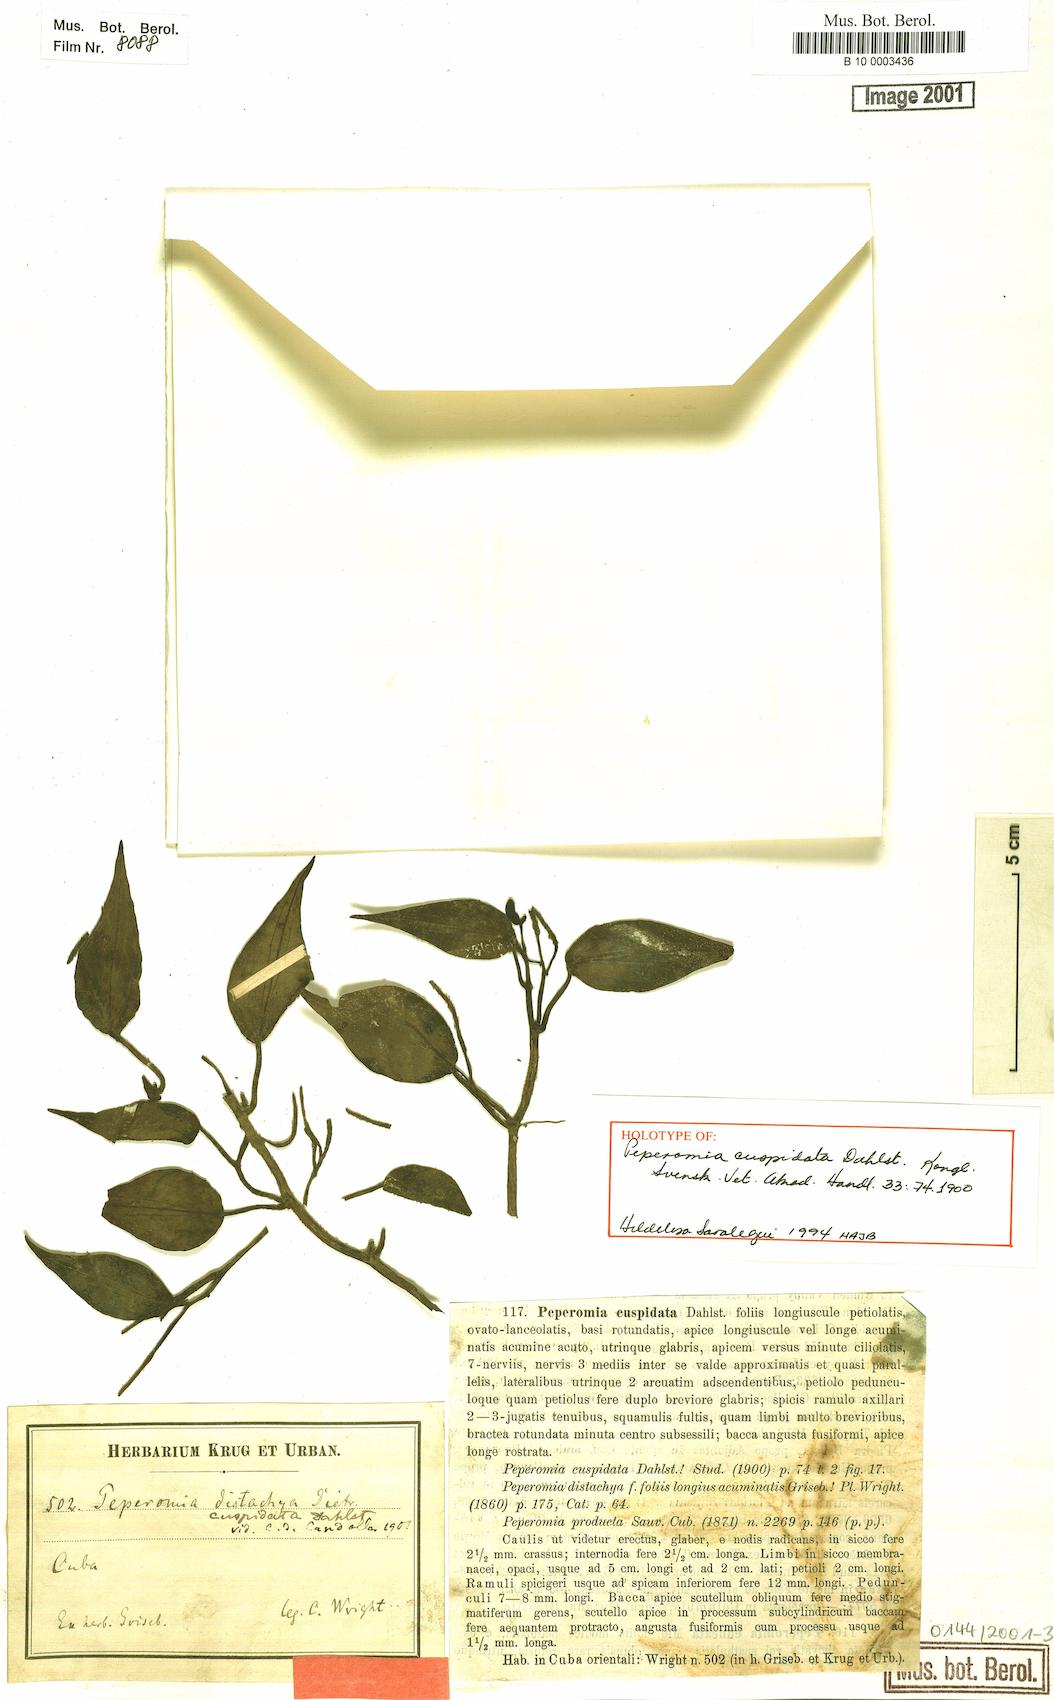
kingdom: Plantae
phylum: Tracheophyta
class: Magnoliopsida
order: Piperales
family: Piperaceae
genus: Peperomia
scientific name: Peperomia cuspidata
